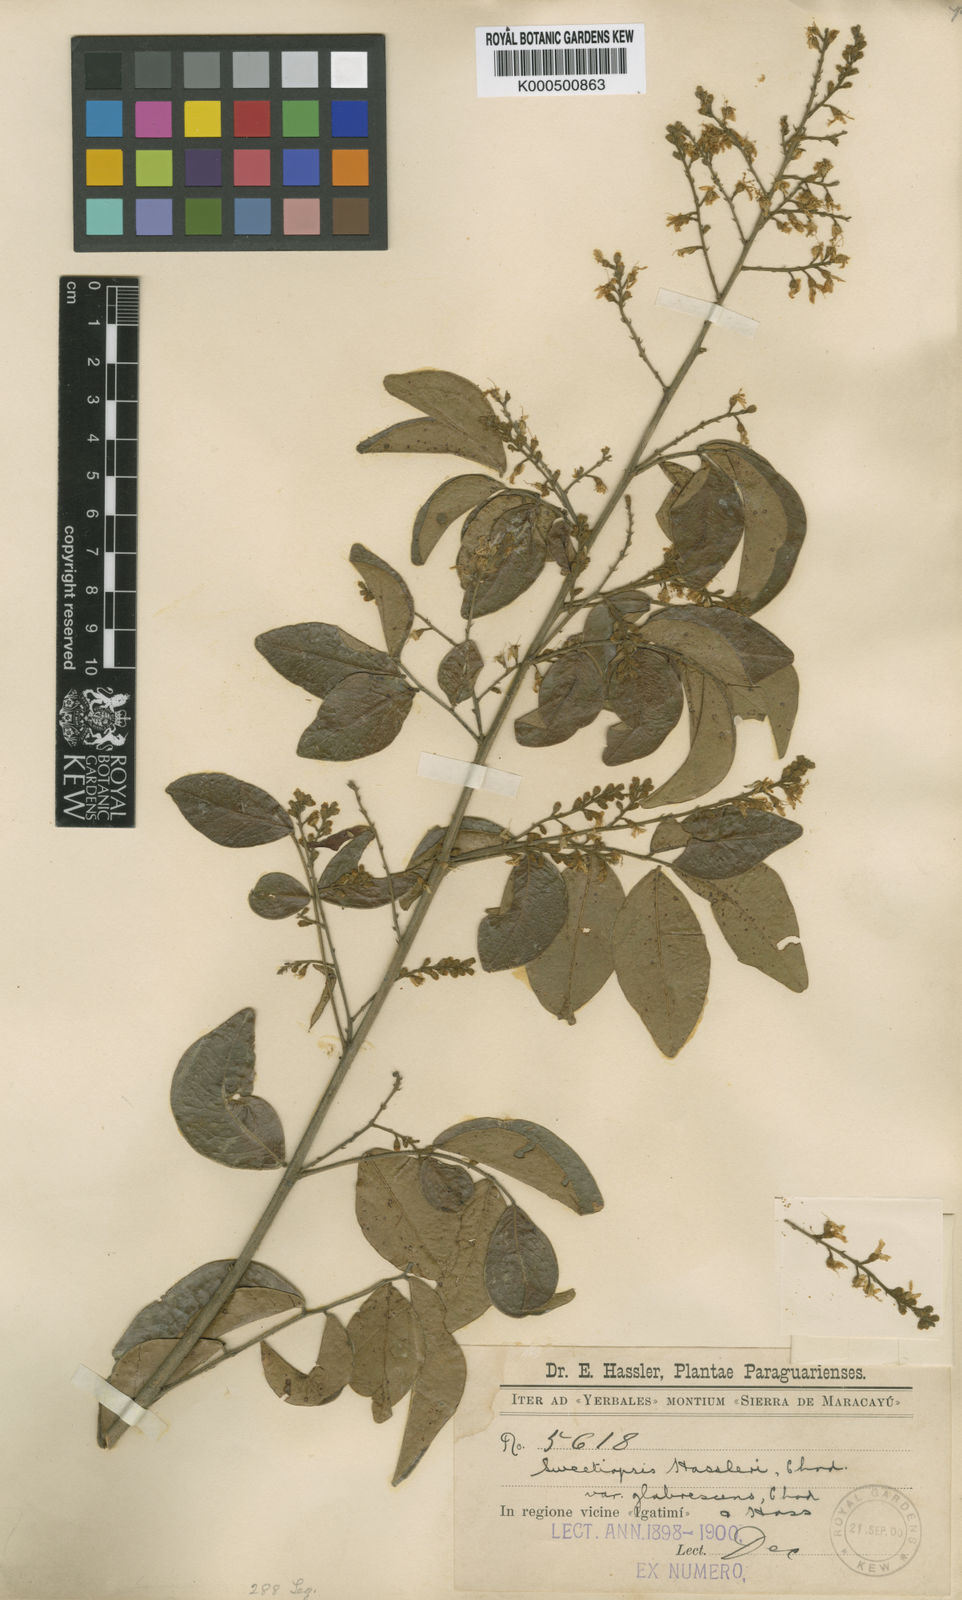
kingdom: Plantae
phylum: Tracheophyta
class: Magnoliopsida
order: Fabales
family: Fabaceae
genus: Riedeliella
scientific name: Riedeliella graciliflora
